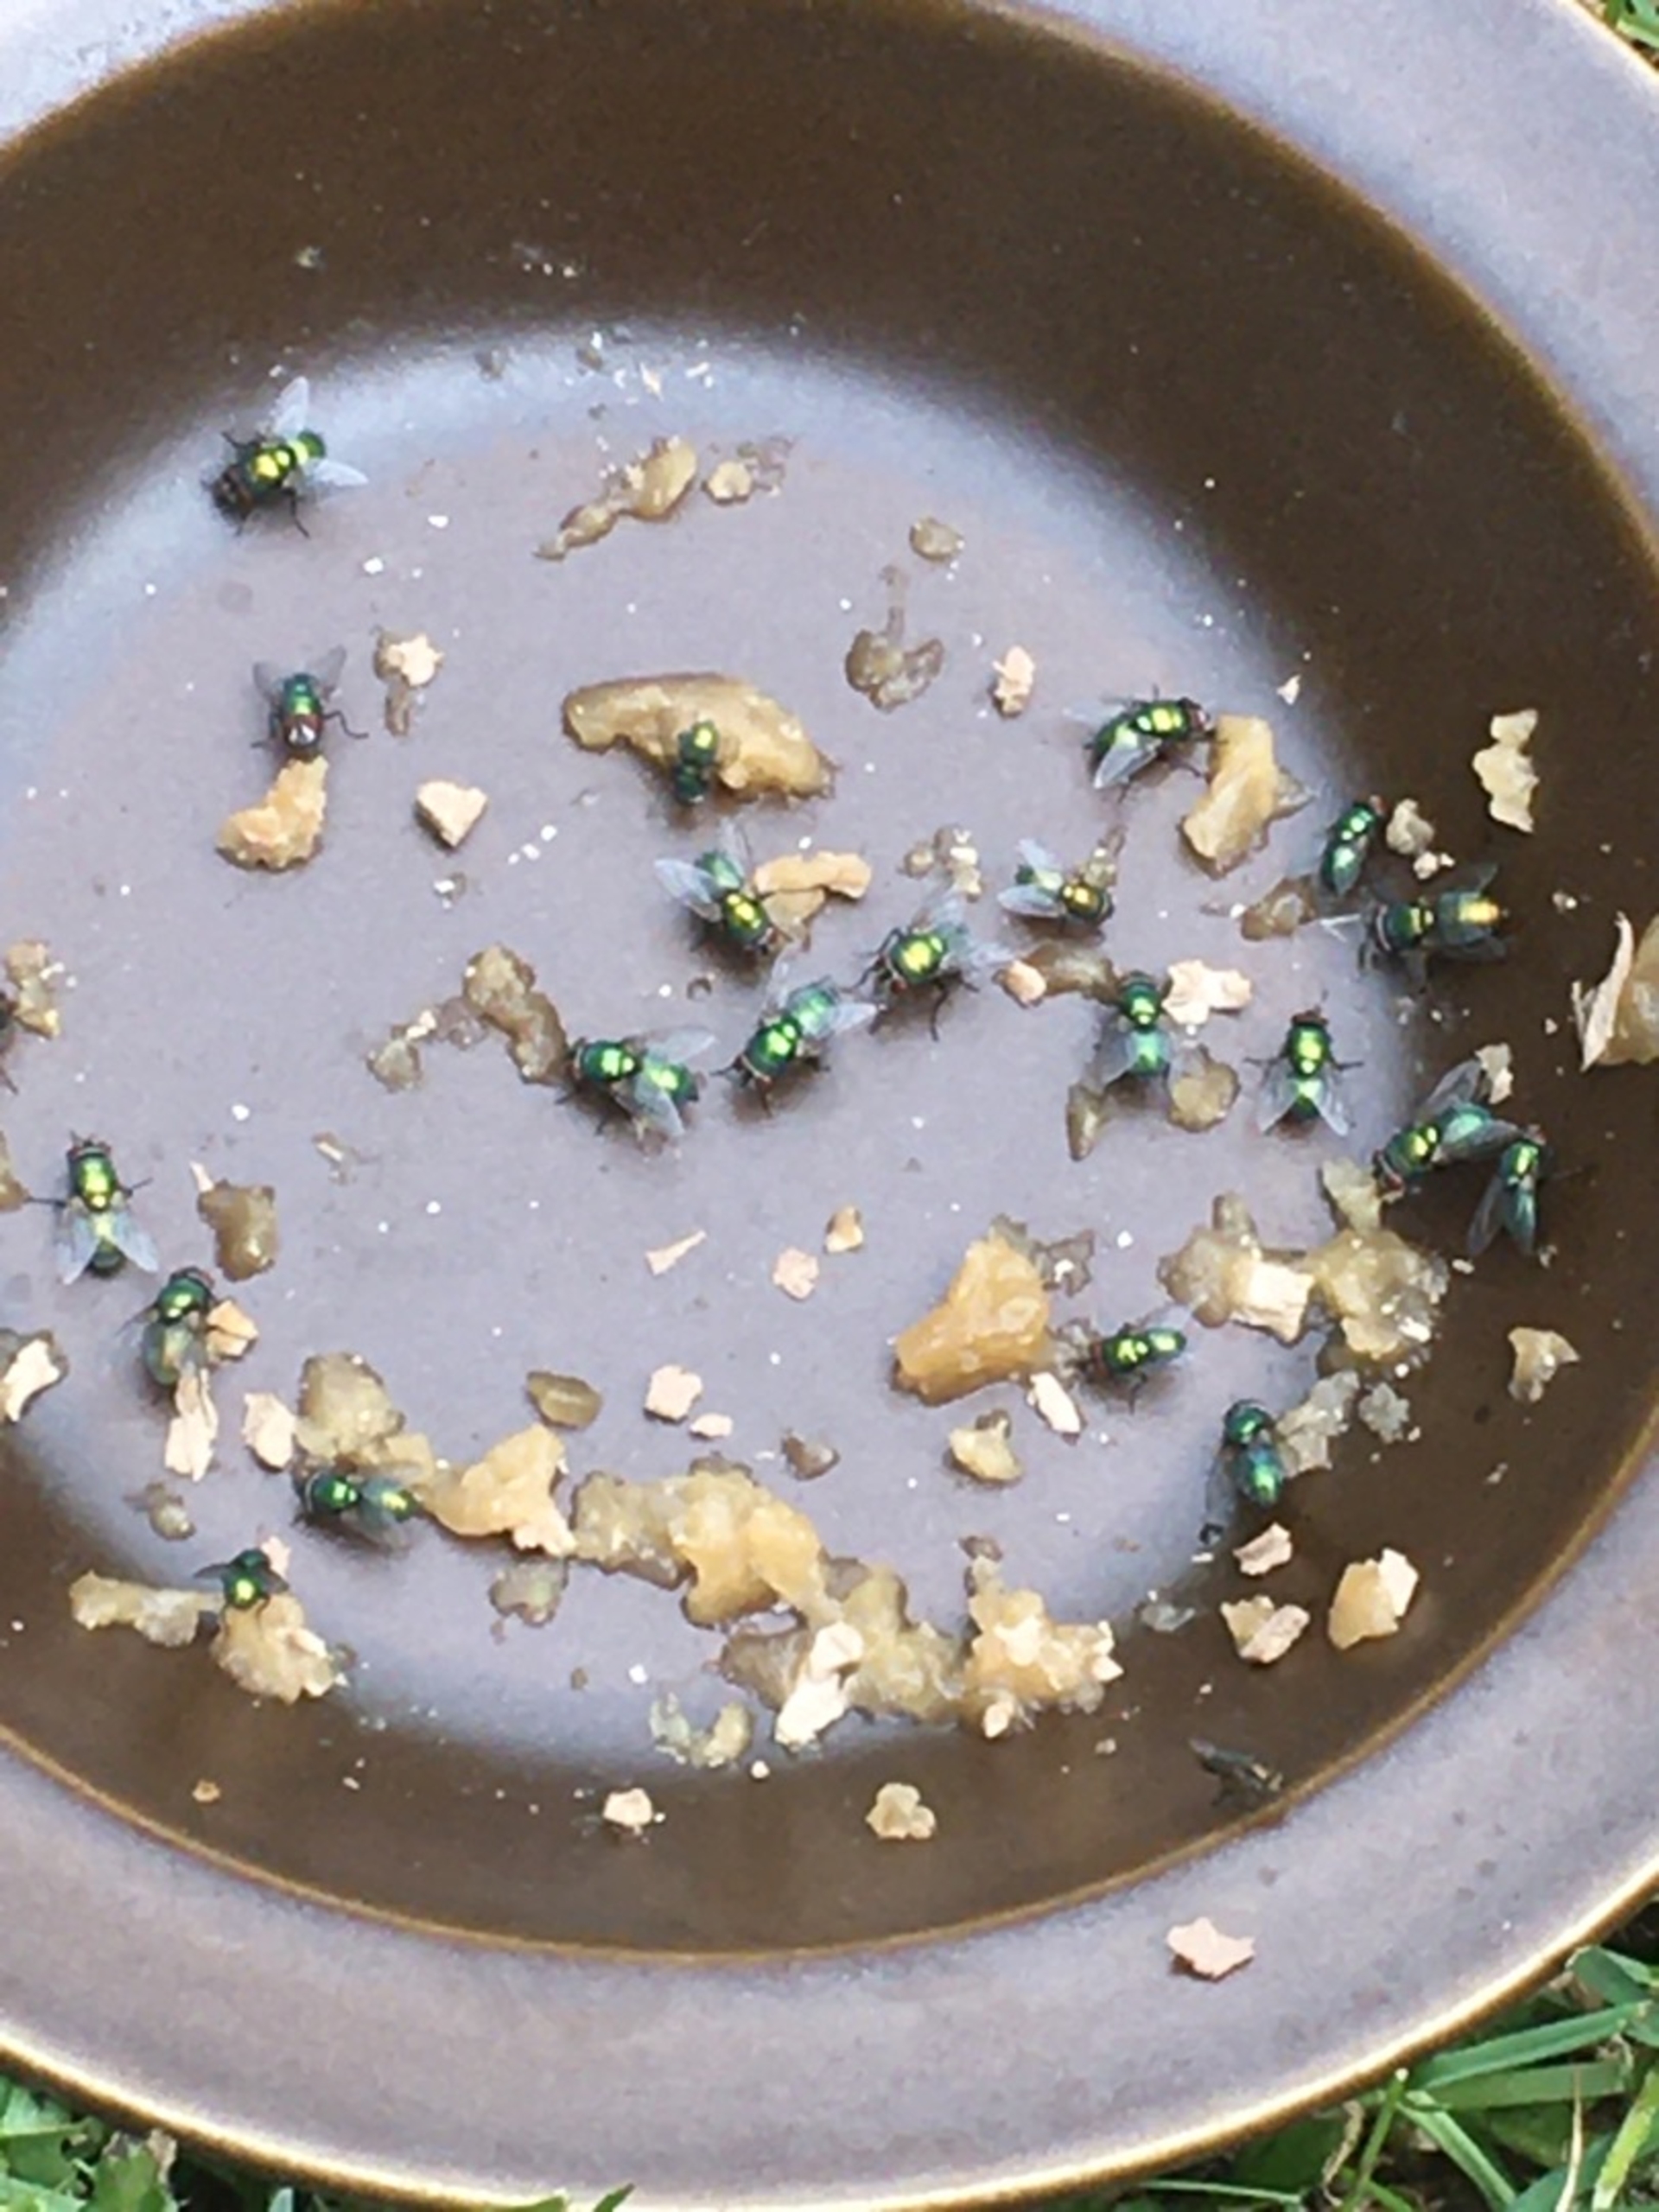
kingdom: Animalia
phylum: Arthropoda
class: Insecta
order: Diptera
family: Calliphoridae
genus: Lucilia
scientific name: Lucilia
